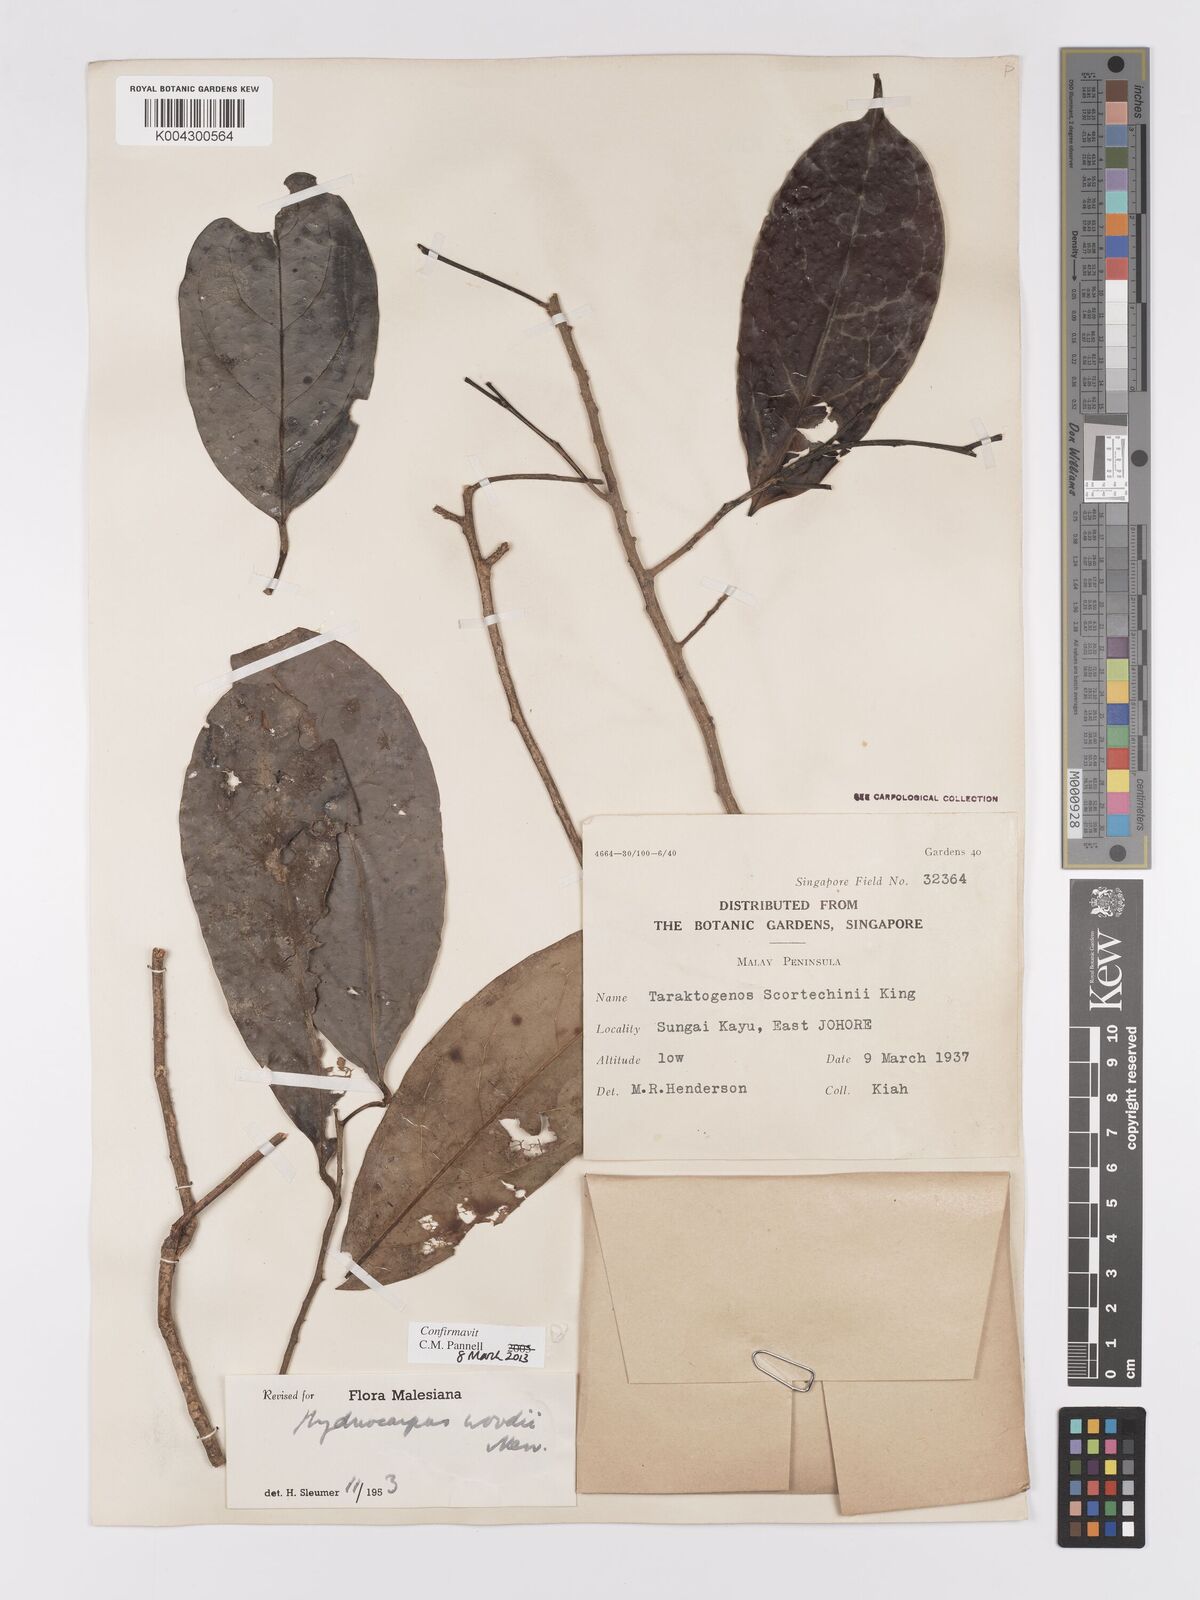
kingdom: Plantae
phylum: Tracheophyta
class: Magnoliopsida
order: Malpighiales
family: Achariaceae
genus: Hydnocarpus
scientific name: Hydnocarpus woodii
